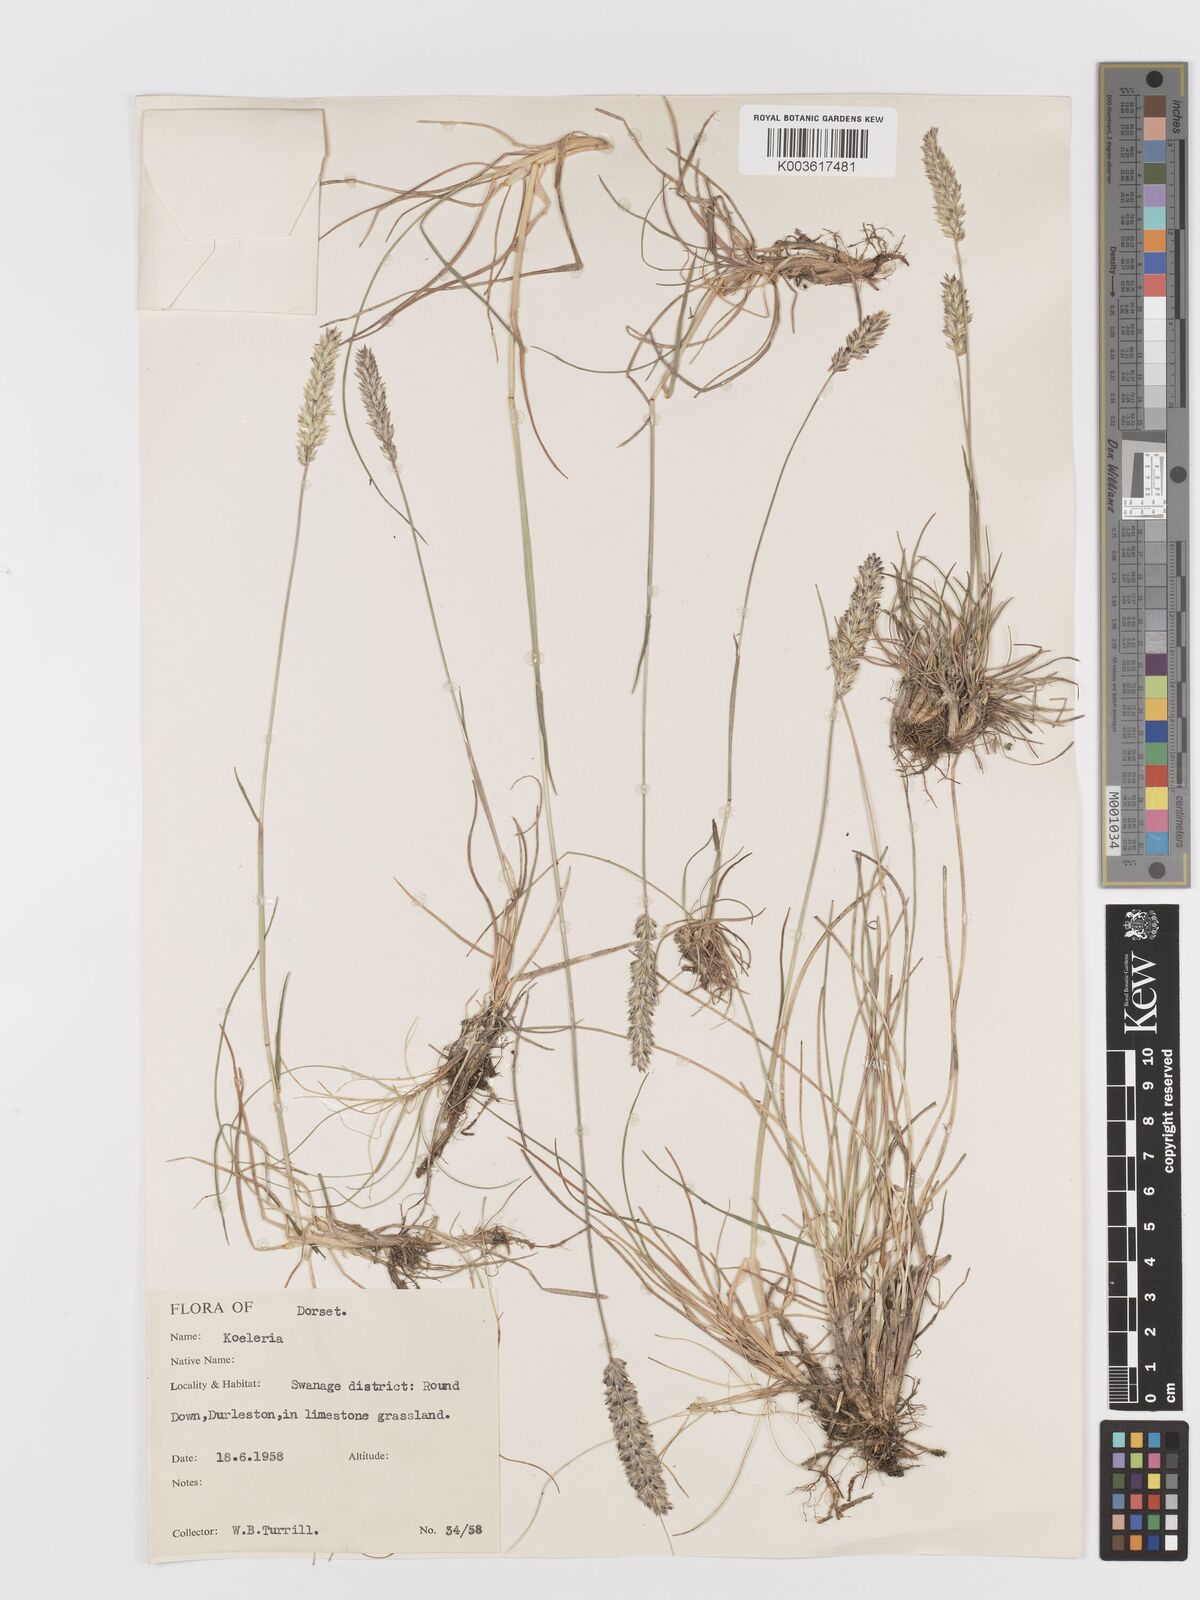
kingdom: Plantae
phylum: Tracheophyta
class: Liliopsida
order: Poales
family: Poaceae
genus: Koeleria
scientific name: Koeleria
